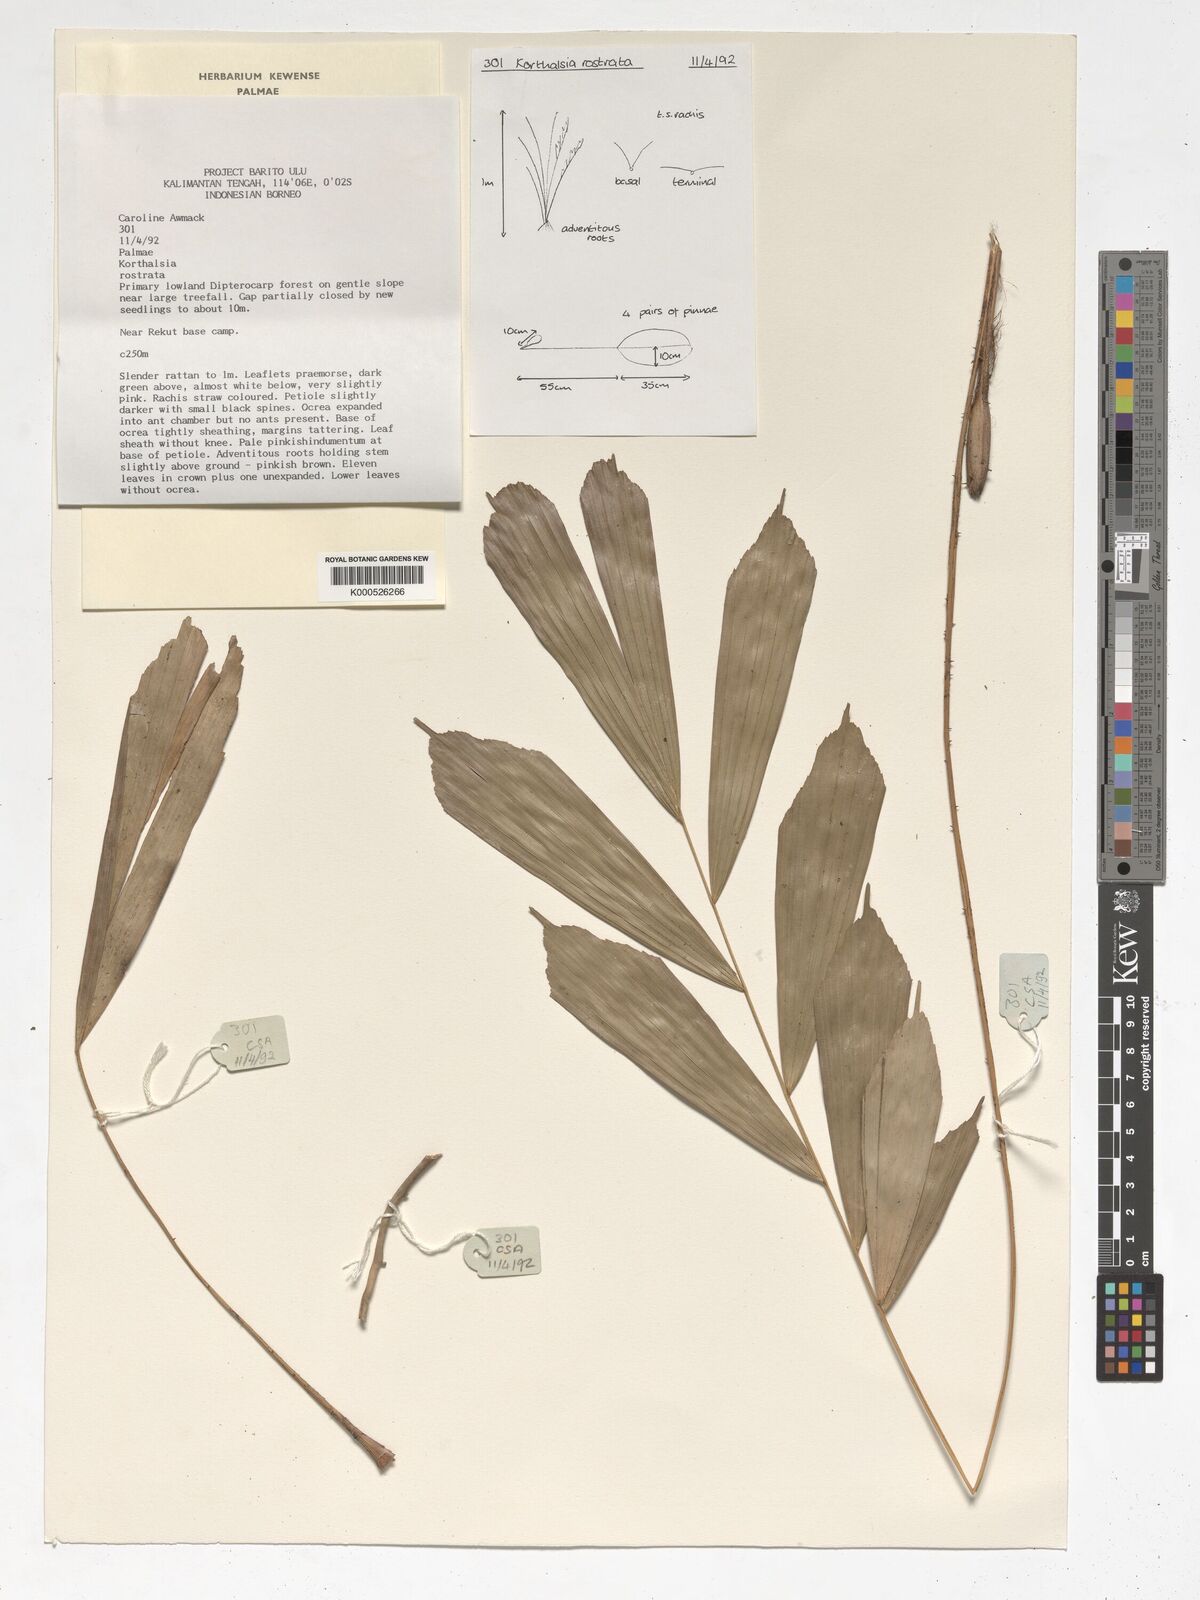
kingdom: Plantae
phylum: Tracheophyta
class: Liliopsida
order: Arecales
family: Arecaceae
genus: Korthalsia
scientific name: Korthalsia rostrata
